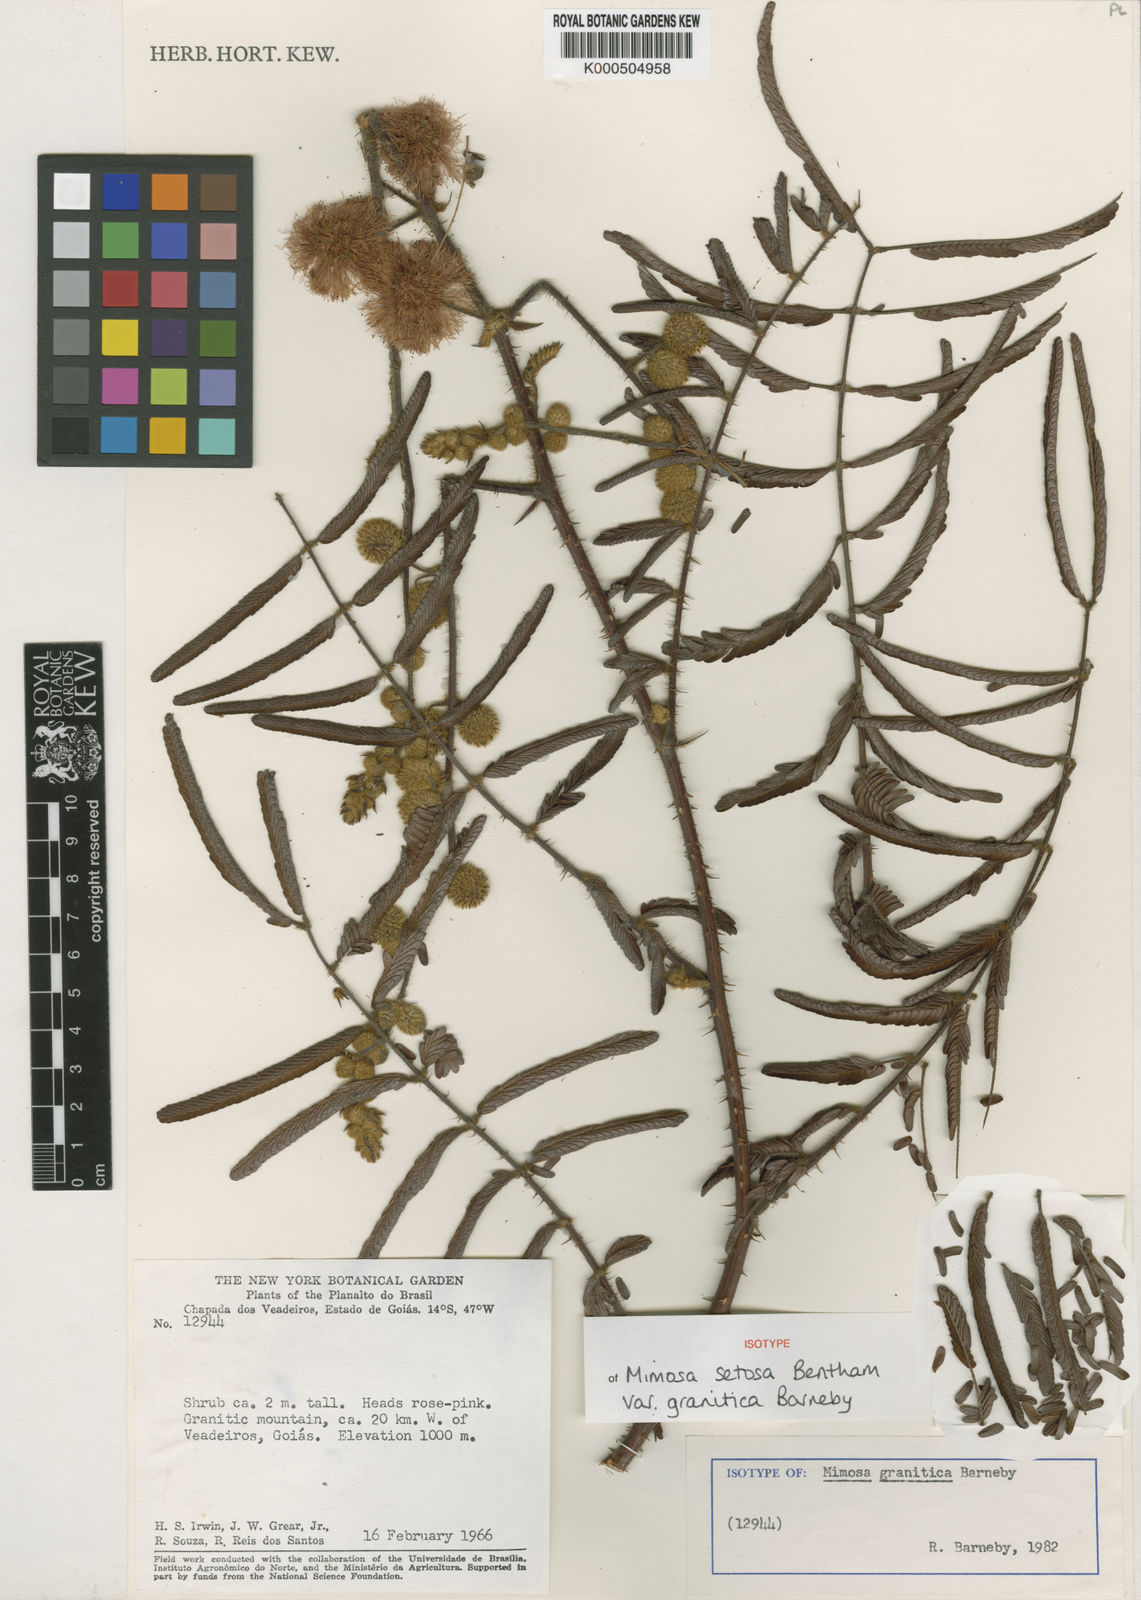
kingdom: Plantae
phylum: Tracheophyta
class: Magnoliopsida
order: Fabales
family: Fabaceae
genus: Mimosa
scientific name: Mimosa granitica
